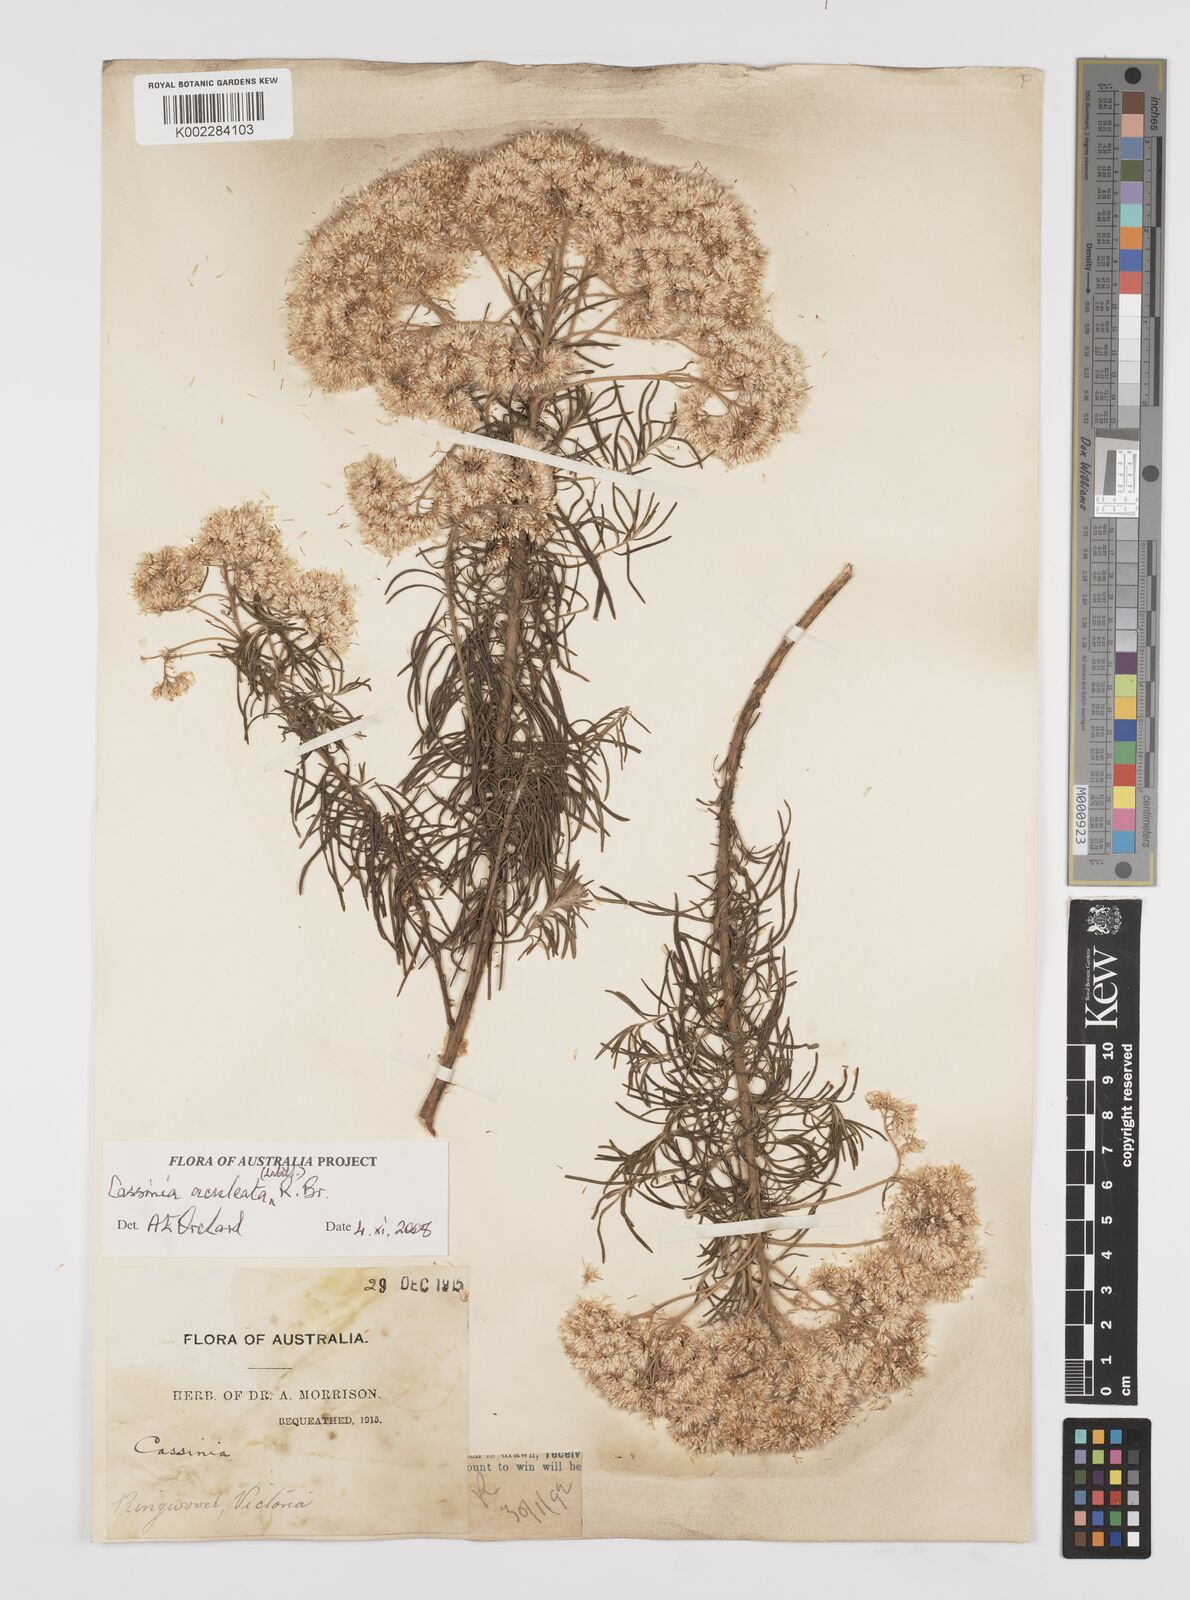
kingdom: Plantae
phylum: Tracheophyta
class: Magnoliopsida
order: Asterales
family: Asteraceae
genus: Cassinia
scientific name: Cassinia aculeata
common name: Australian tauhinu
